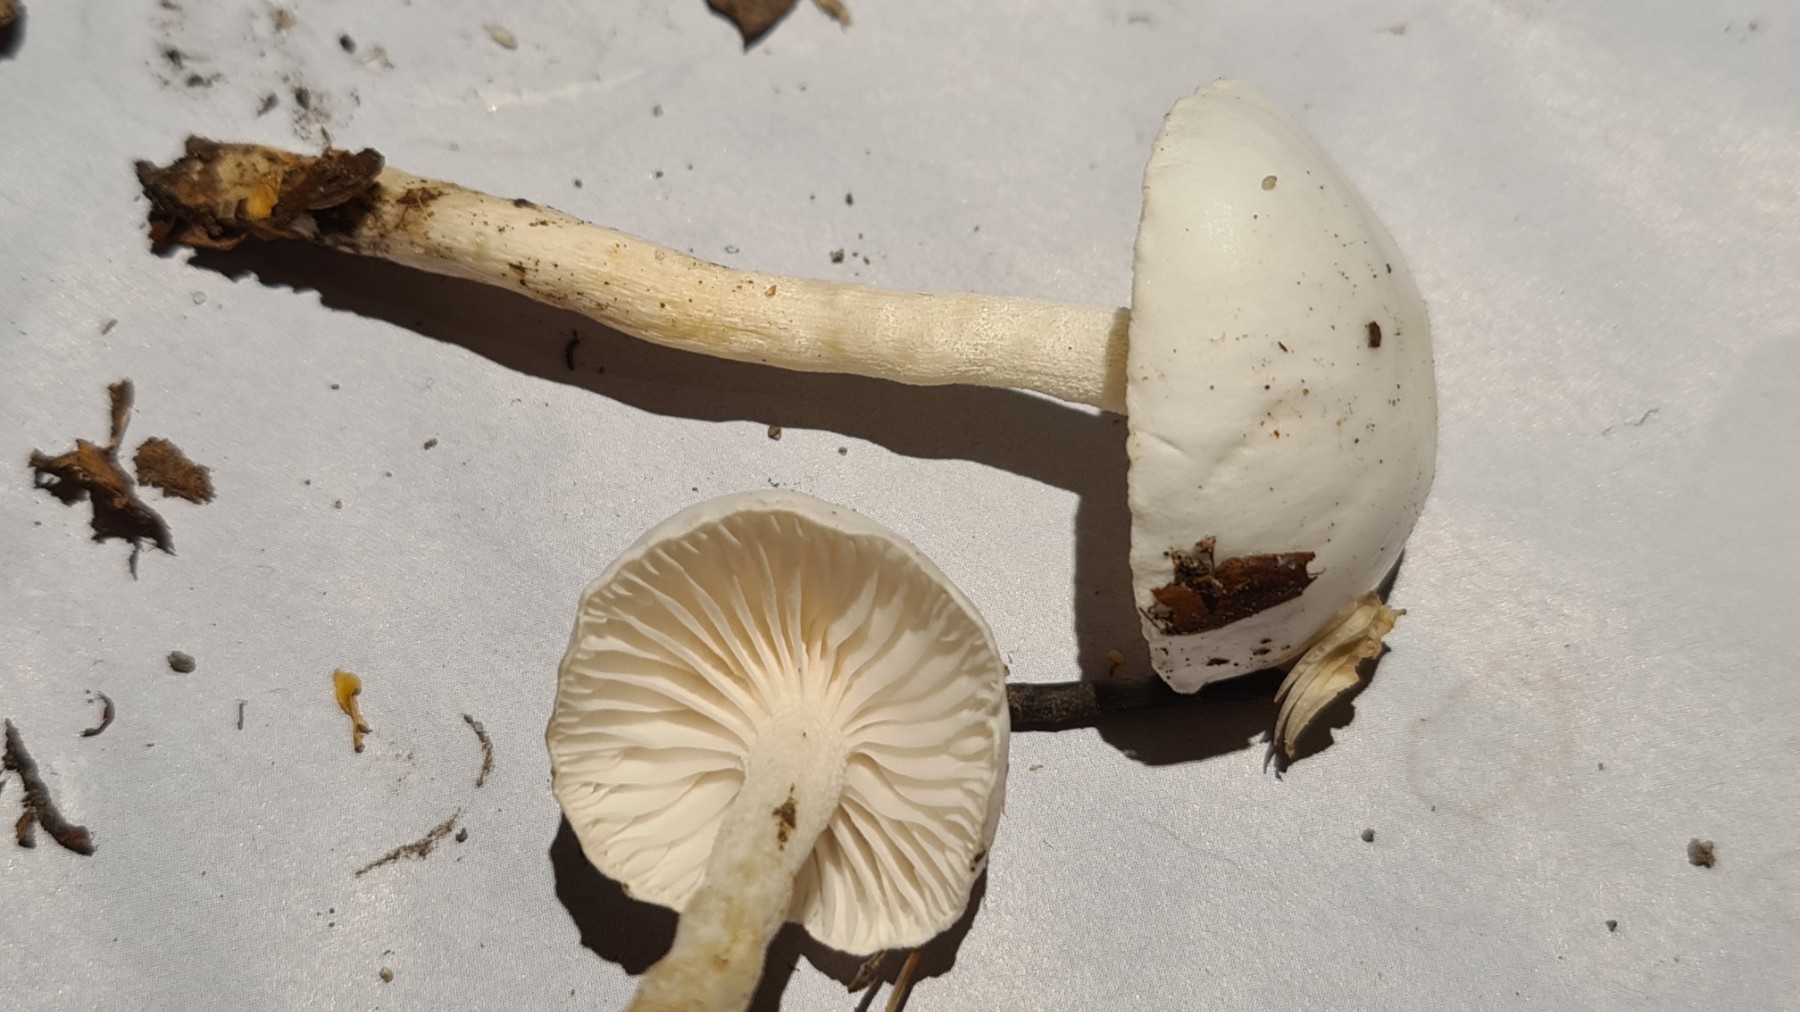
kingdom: Fungi
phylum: Basidiomycota
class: Agaricomycetes
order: Agaricales
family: Hygrophoraceae
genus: Hygrophorus
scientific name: Hygrophorus
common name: sneglehat
